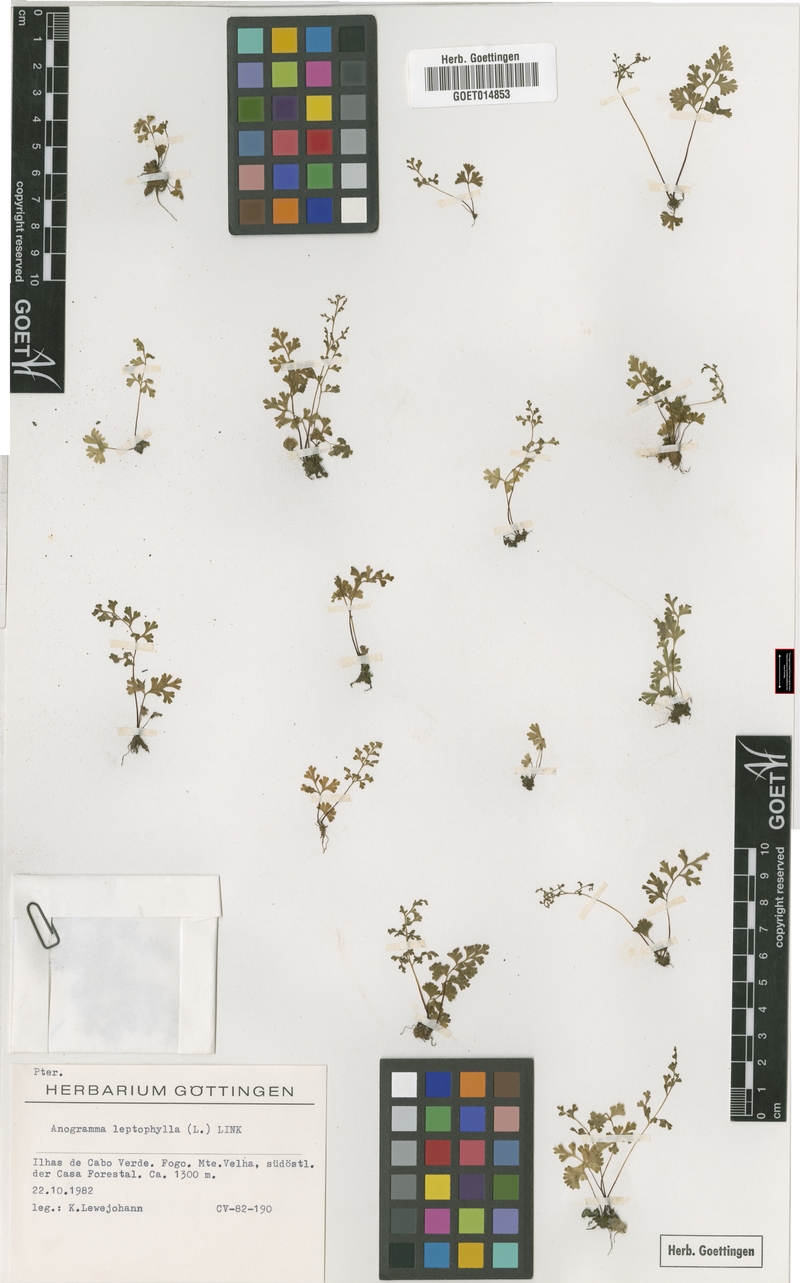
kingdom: Plantae
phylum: Tracheophyta
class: Polypodiopsida
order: Polypodiales
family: Pteridaceae
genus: Anogramma
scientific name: Anogramma leptophylla
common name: Jersey fern
